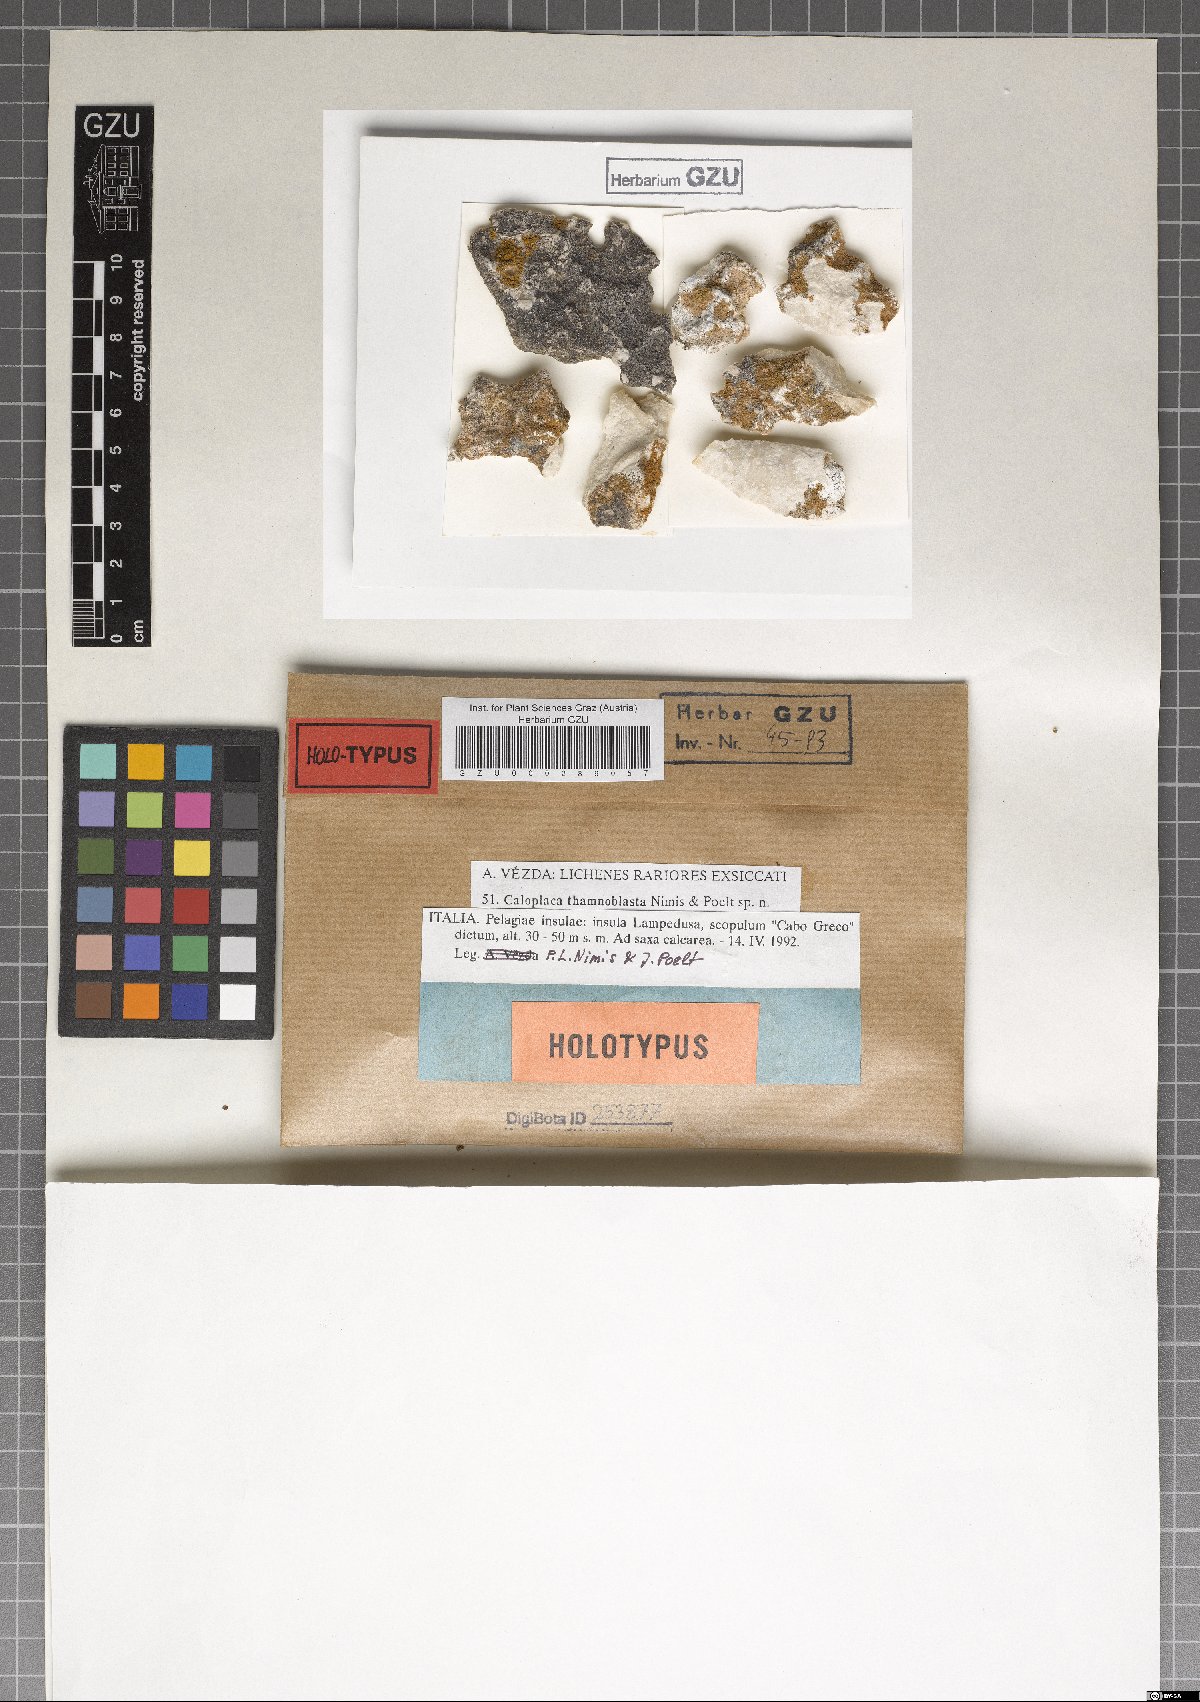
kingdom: Fungi
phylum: Ascomycota
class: Lecanoromycetes
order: Teloschistales
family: Teloschistaceae
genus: Caloplaca
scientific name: Caloplaca
